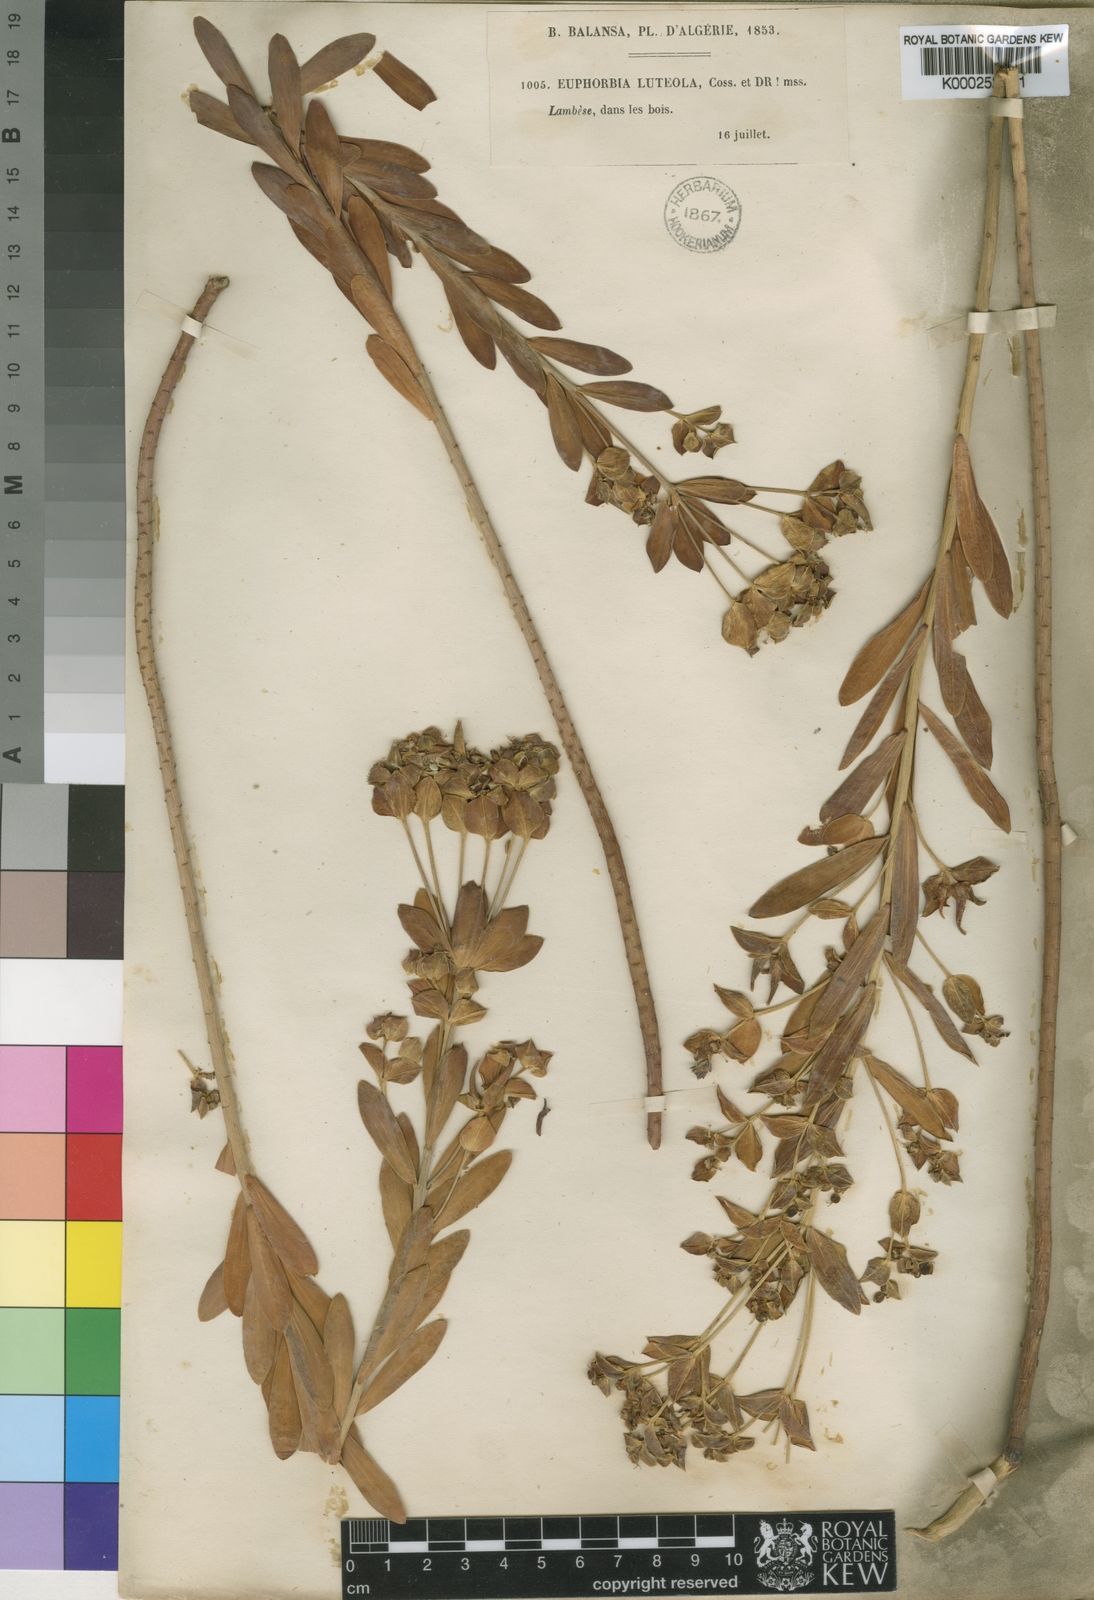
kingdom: Plantae
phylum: Tracheophyta
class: Magnoliopsida
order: Malpighiales
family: Euphorbiaceae
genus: Euphorbia
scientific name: Euphorbia nicaeensis
